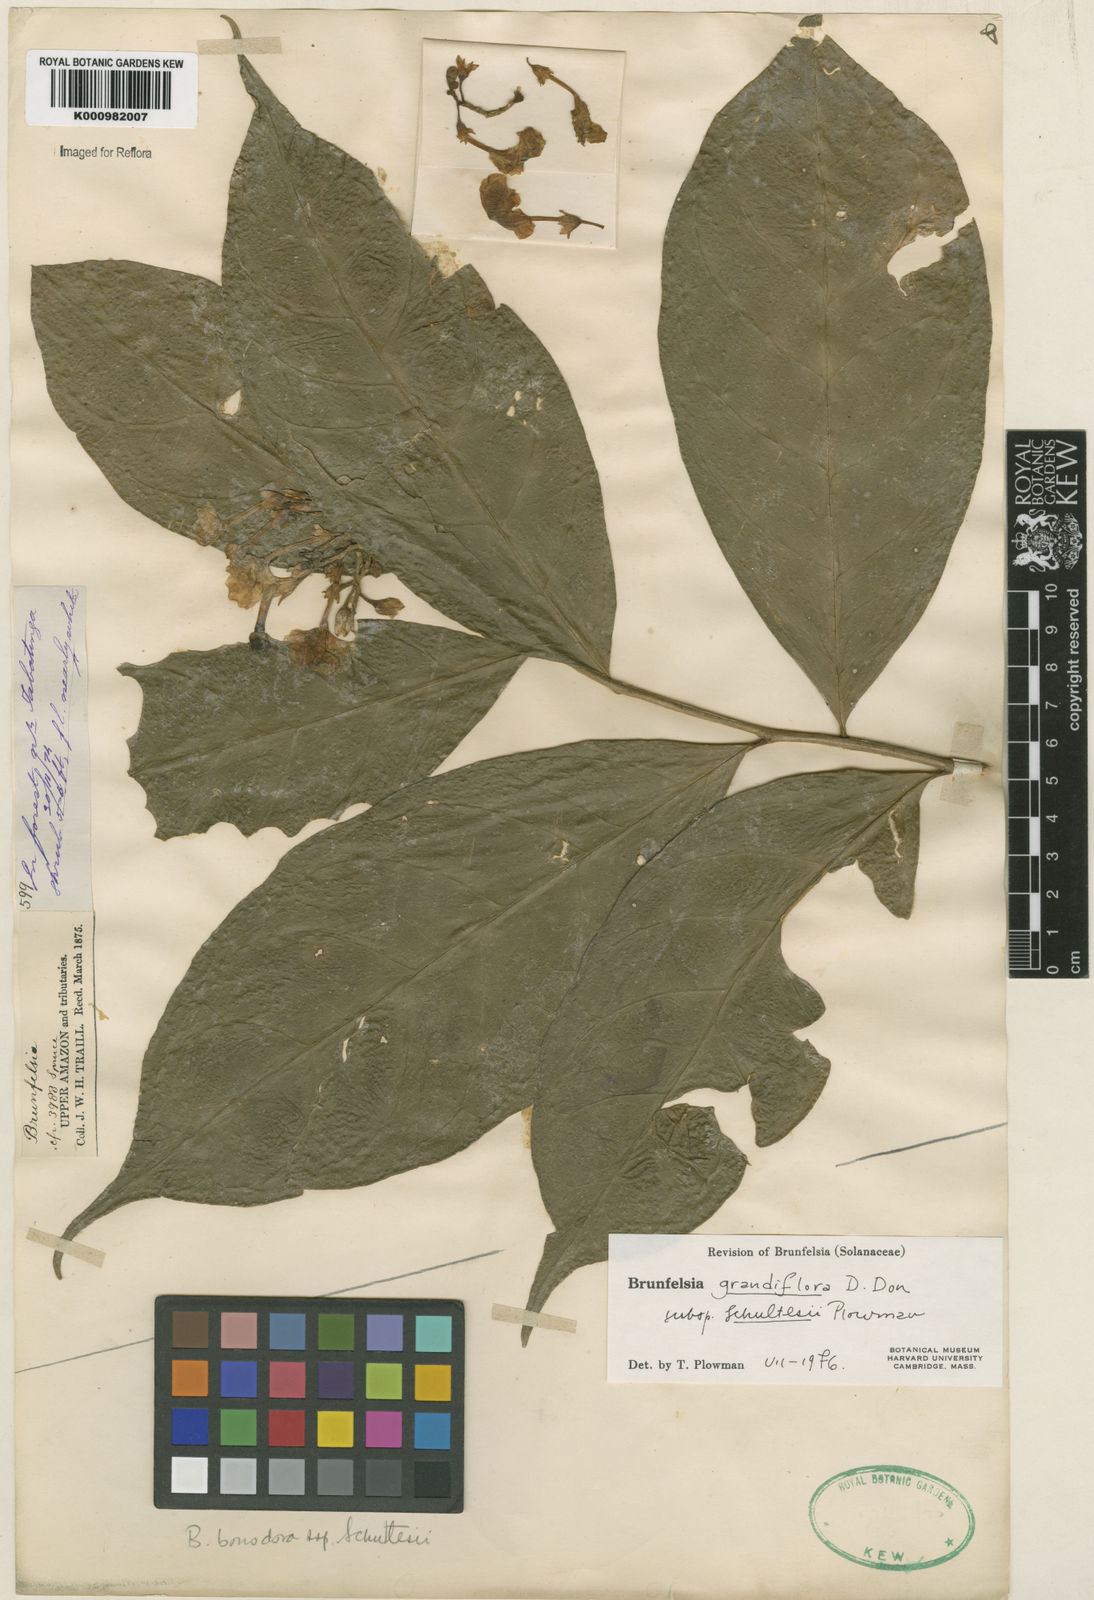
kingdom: Plantae
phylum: Tracheophyta
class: Magnoliopsida
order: Solanales
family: Solanaceae
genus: Brunfelsia
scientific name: Brunfelsia grandiflora
